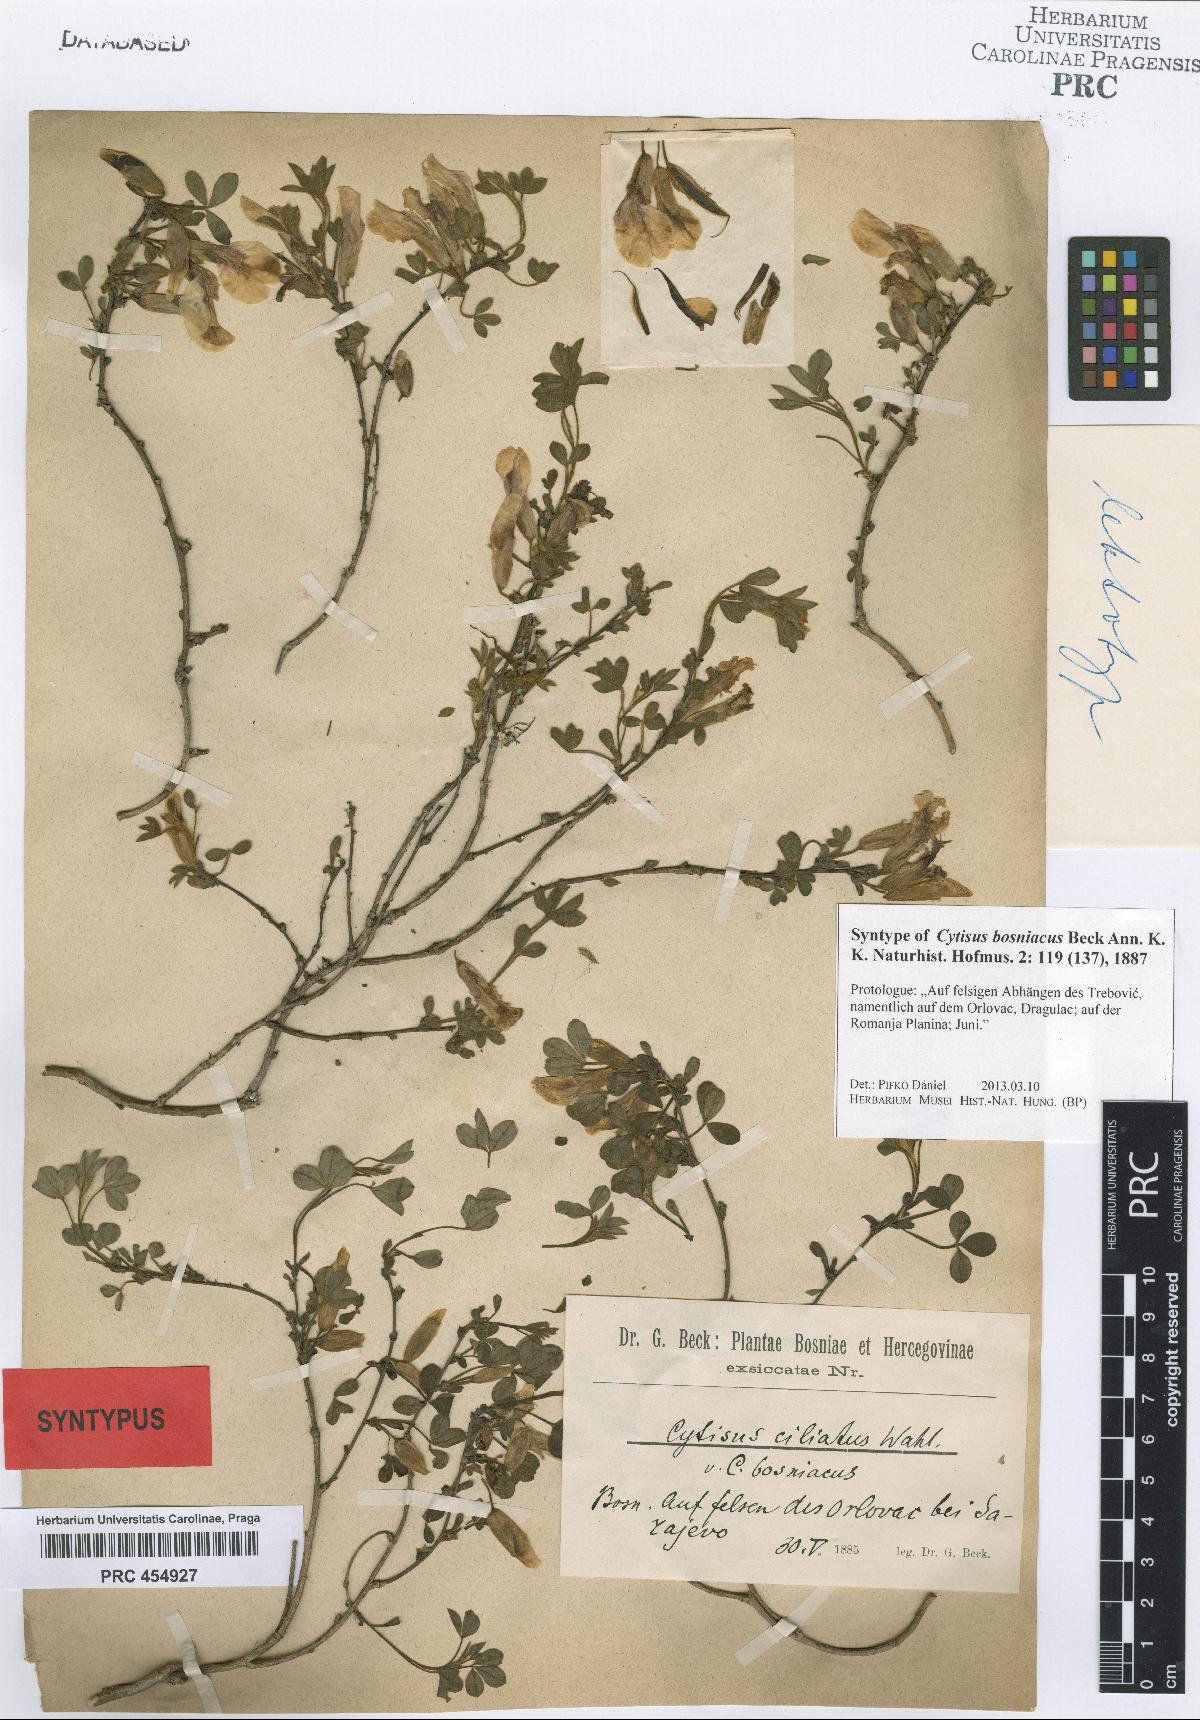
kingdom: Plantae
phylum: Tracheophyta
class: Magnoliopsida
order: Fabales
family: Fabaceae
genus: Chamaecytisus
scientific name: Chamaecytisus hirsutus
